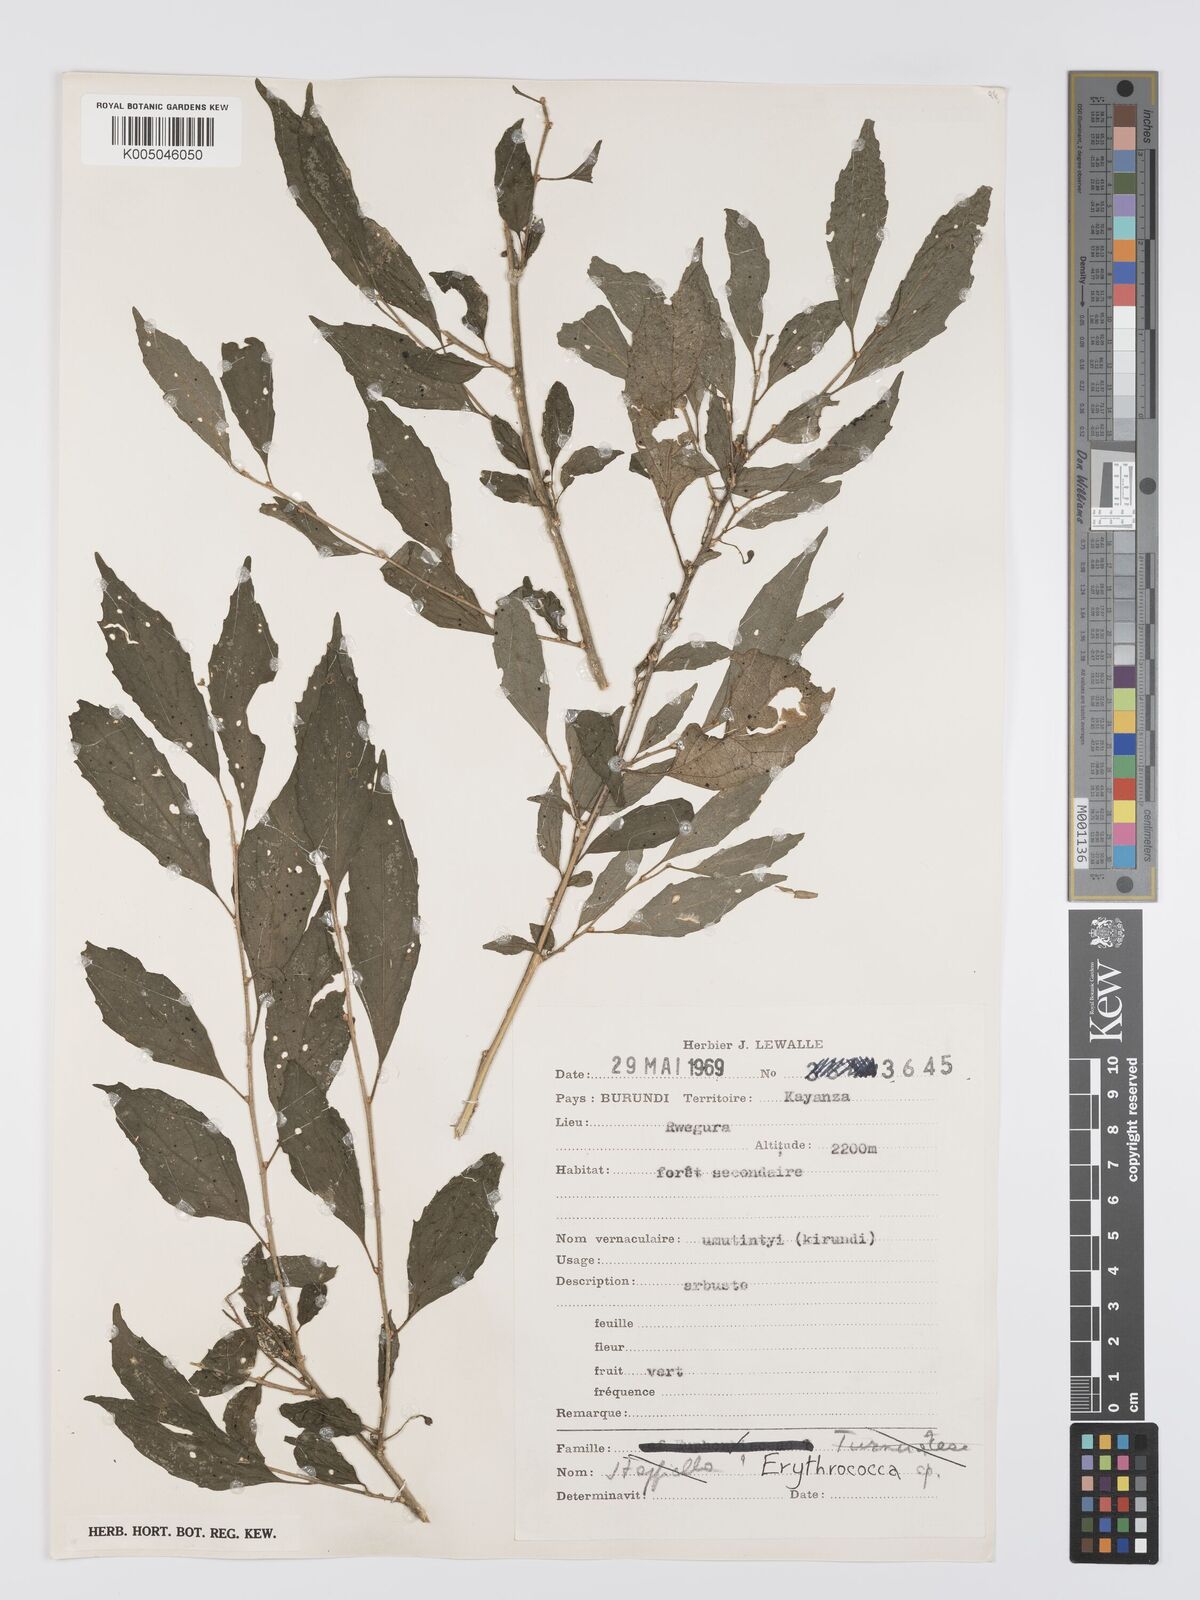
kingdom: Plantae
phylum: Tracheophyta
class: Magnoliopsida
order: Malpighiales
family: Euphorbiaceae
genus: Erythrococca
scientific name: Erythrococca
